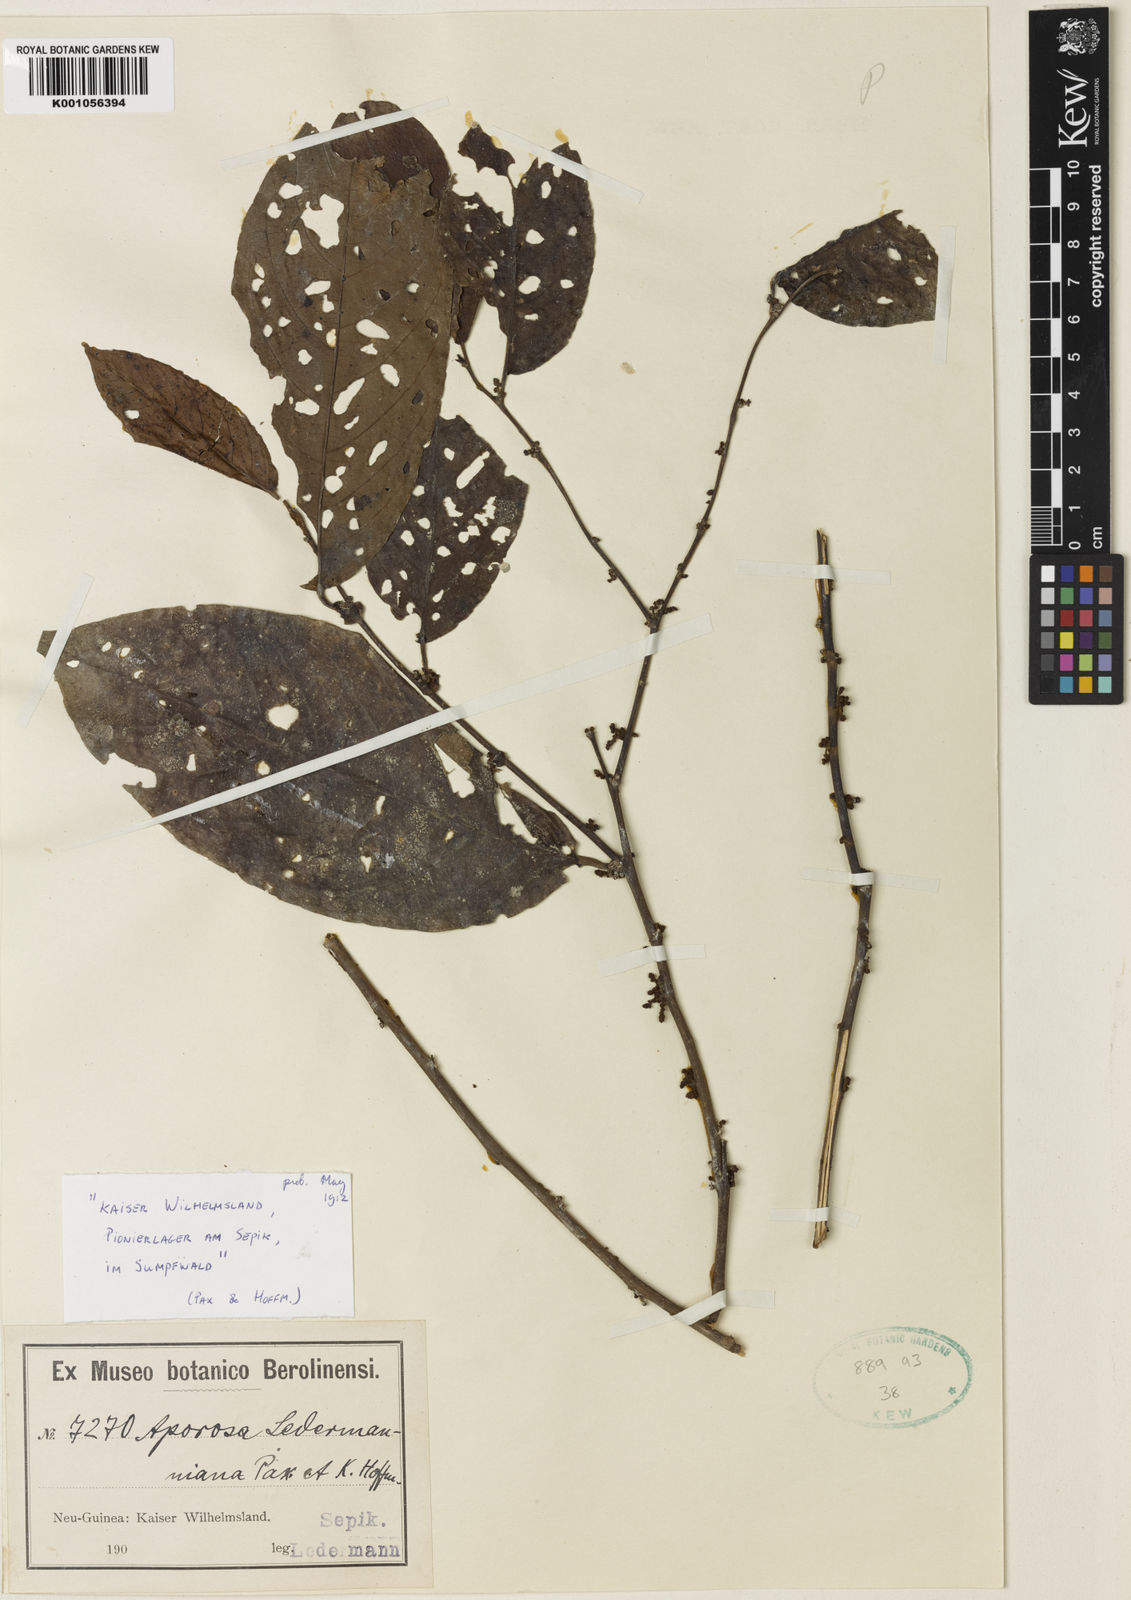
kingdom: Plantae
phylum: Tracheophyta
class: Magnoliopsida
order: Malpighiales
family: Phyllanthaceae
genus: Aporosa
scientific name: Aporosa ledermanniana
